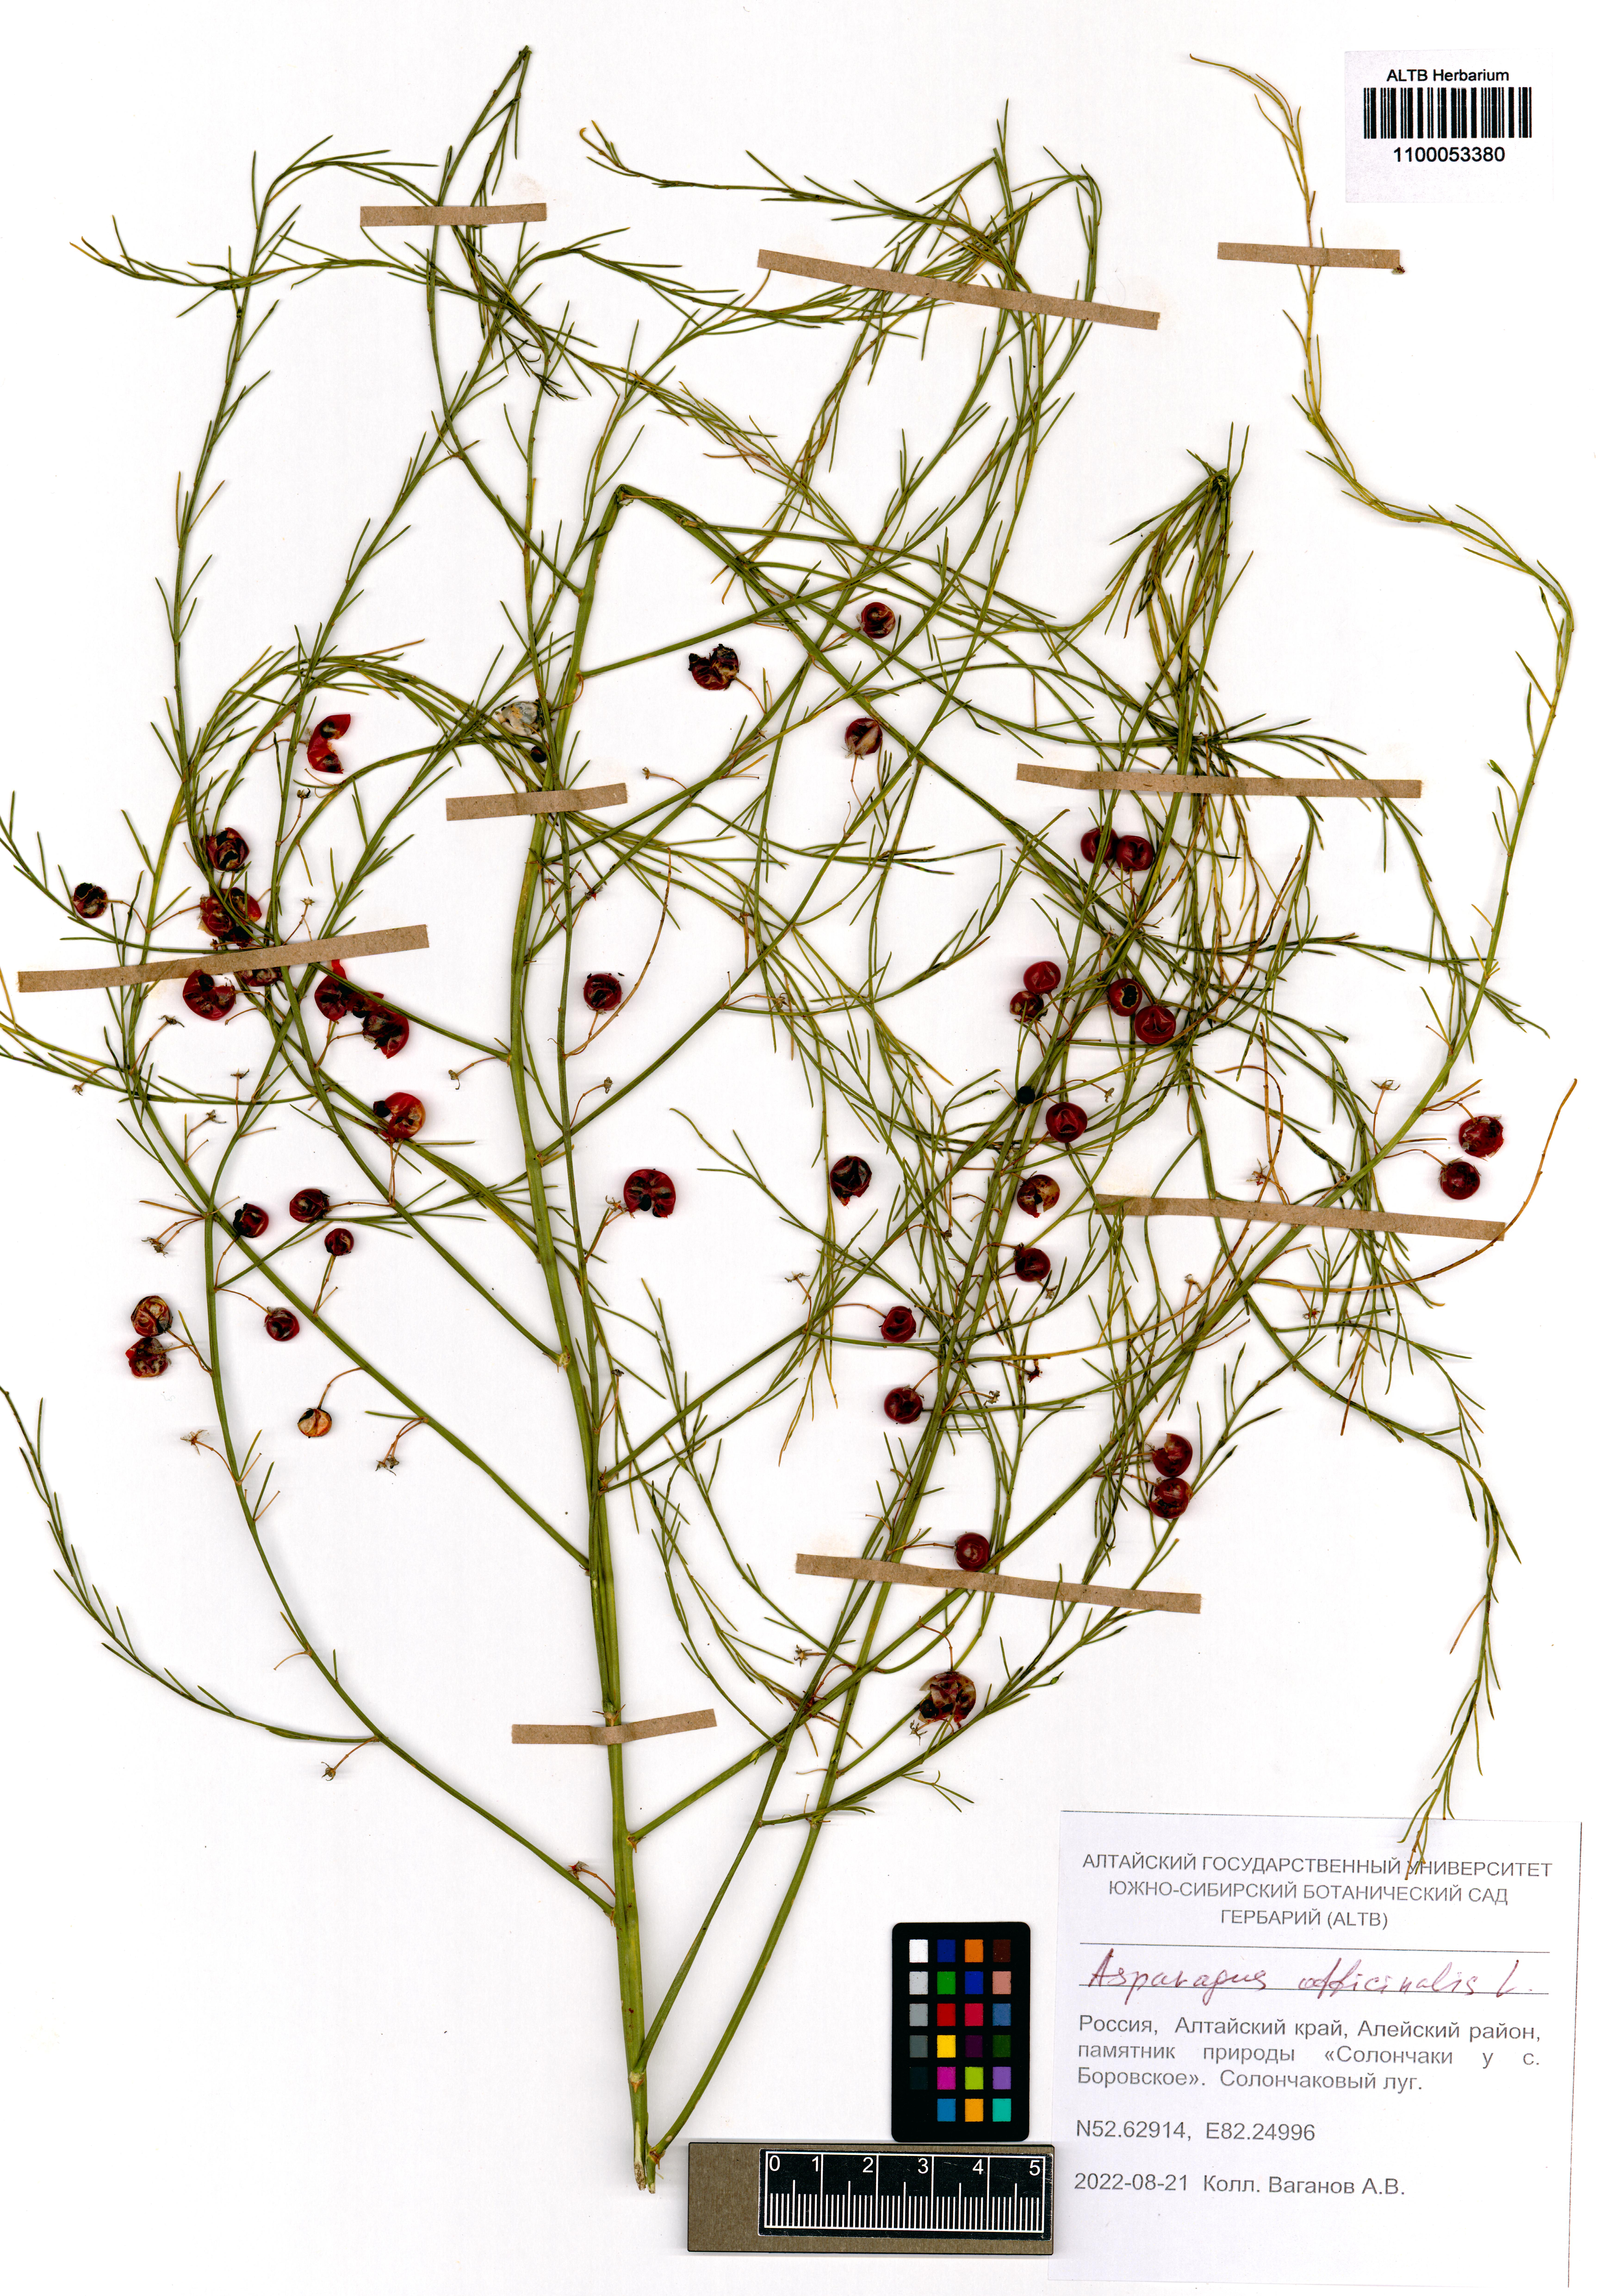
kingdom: Plantae
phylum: Tracheophyta
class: Liliopsida
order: Asparagales
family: Asparagaceae
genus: Asparagus
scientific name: Asparagus officinalis
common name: Garden asparagus
